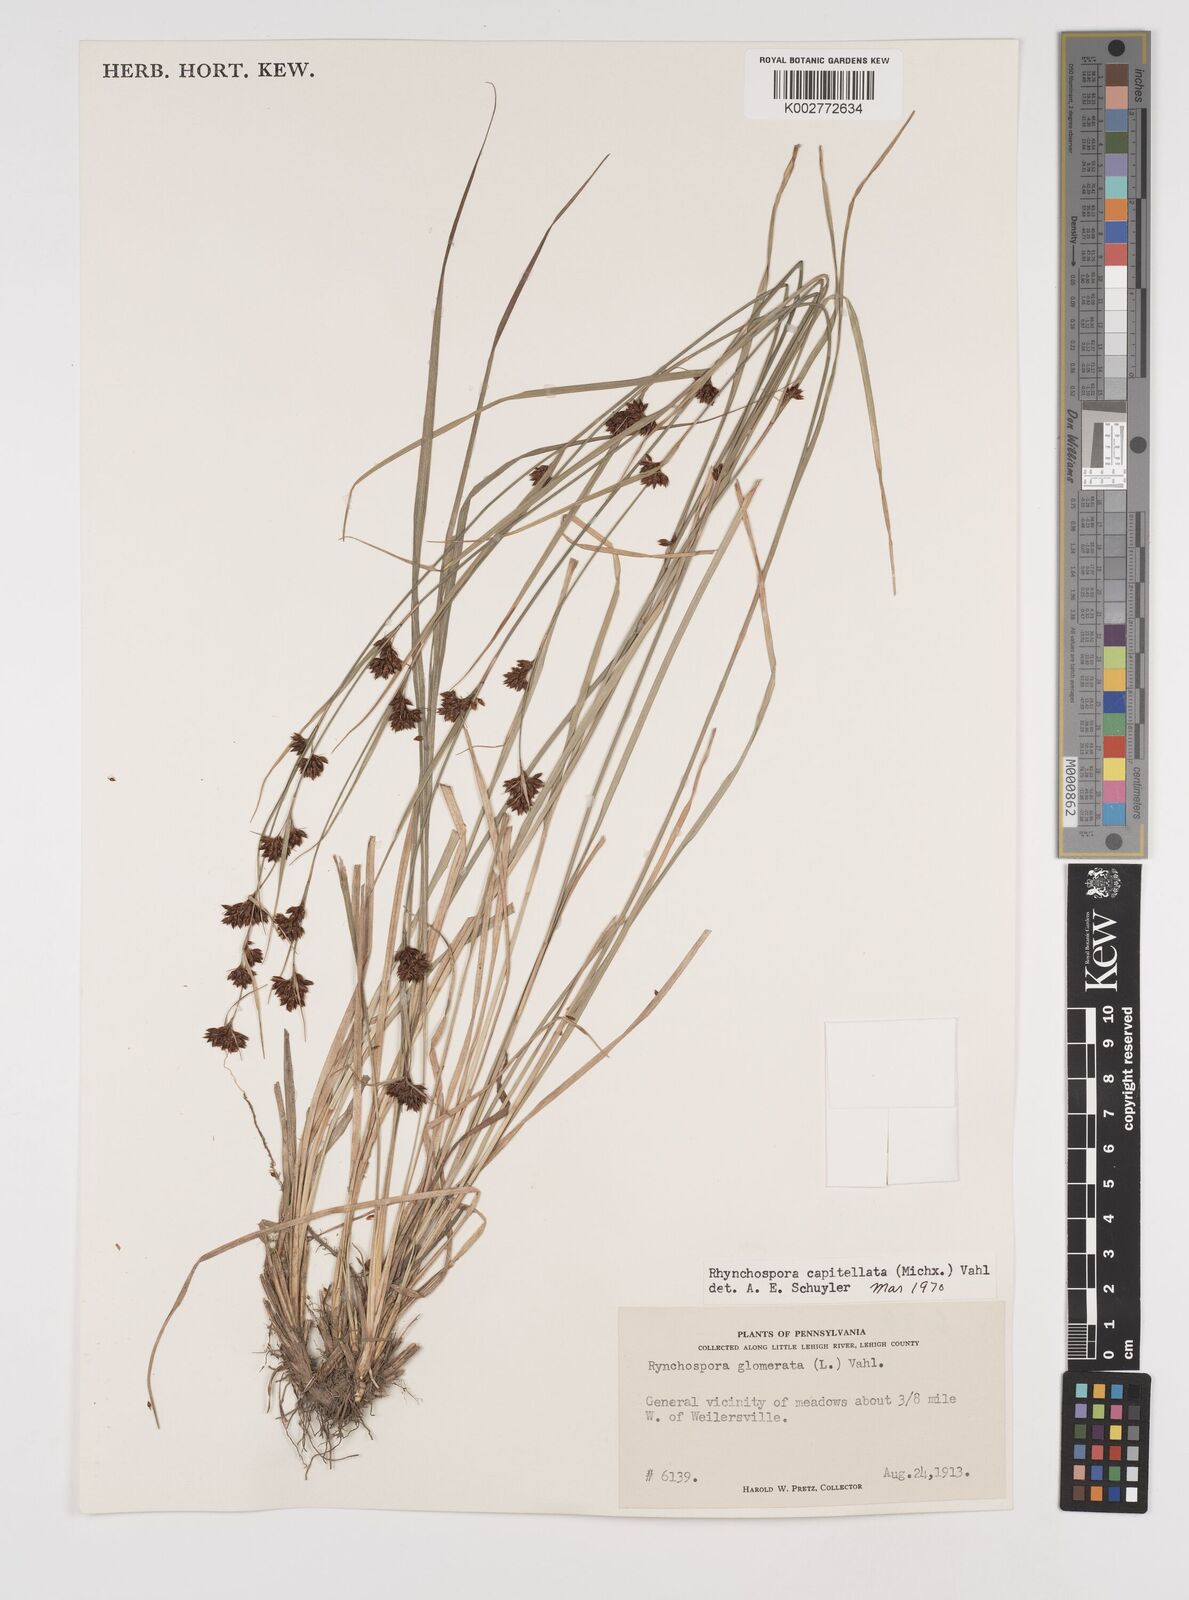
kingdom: Plantae
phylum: Tracheophyta
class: Liliopsida
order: Poales
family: Cyperaceae
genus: Rhynchospora
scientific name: Rhynchospora capitellata
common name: Brownish beaksedge
